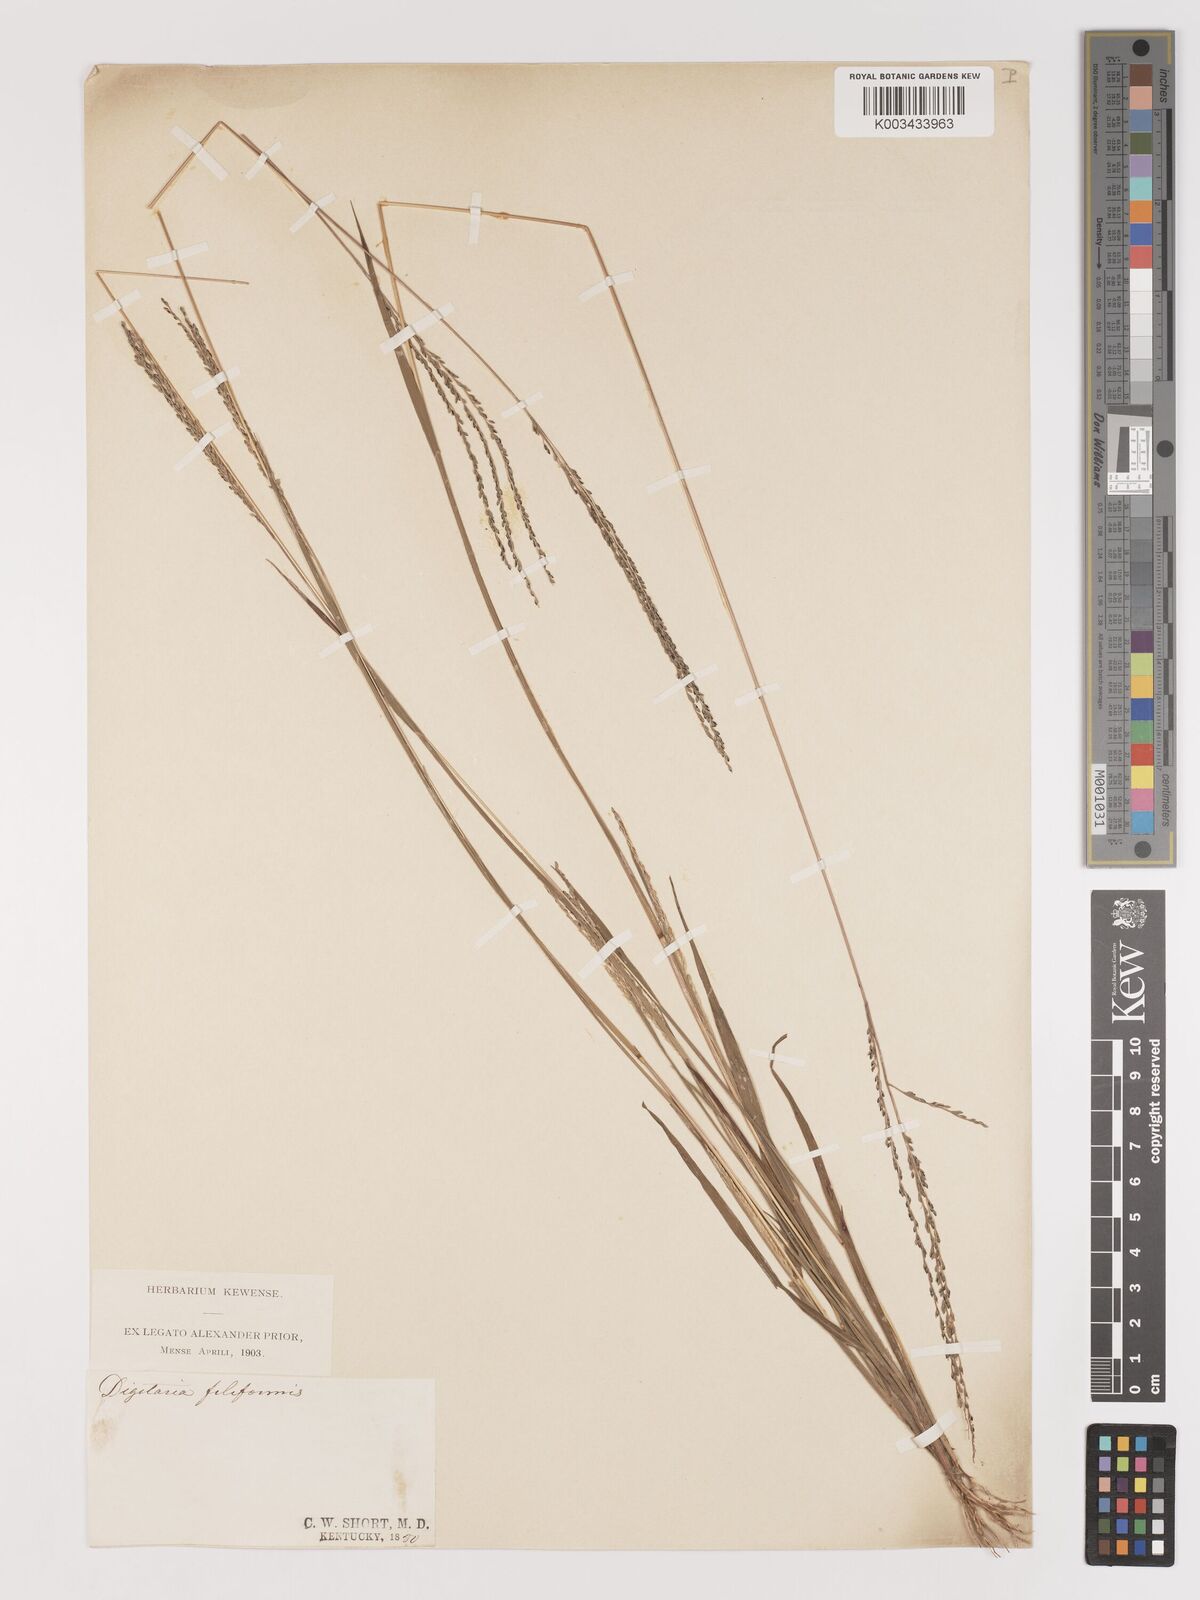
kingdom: Plantae
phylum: Tracheophyta
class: Liliopsida
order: Poales
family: Poaceae
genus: Digitaria
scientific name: Digitaria filiformis
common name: Slender crabgrass
